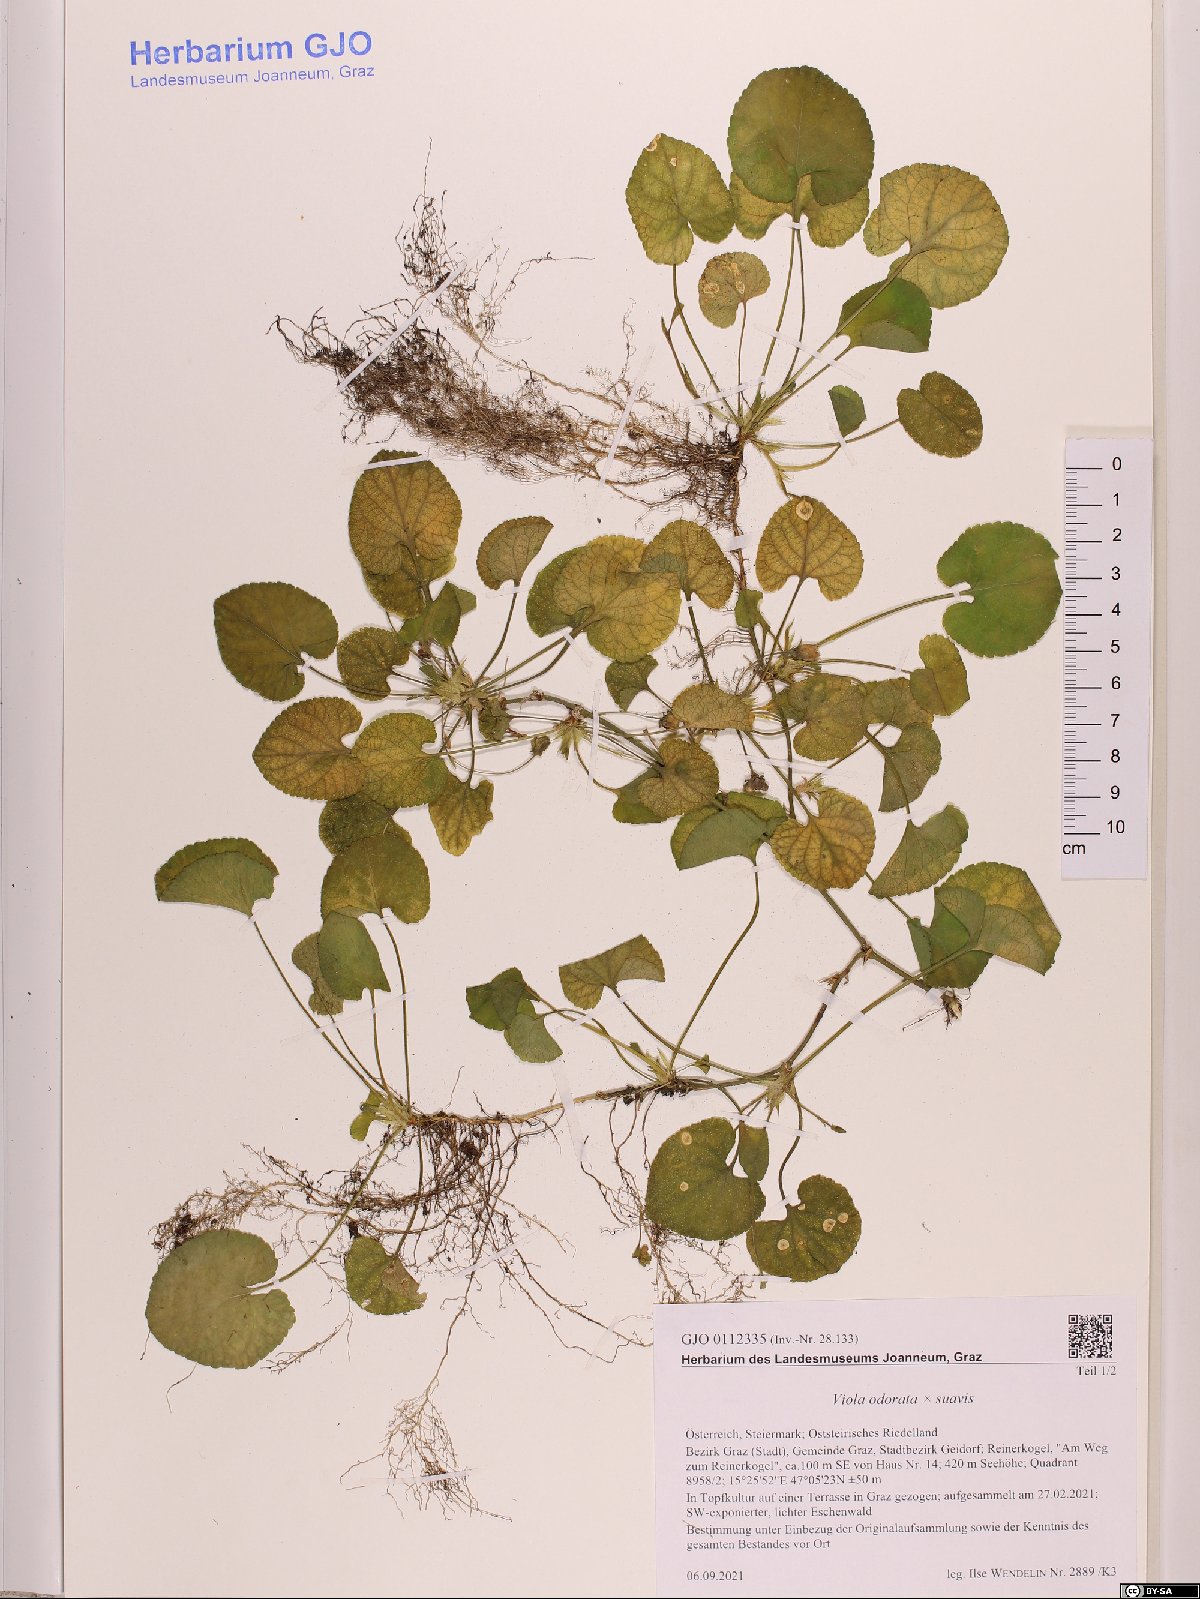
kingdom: Plantae
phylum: Tracheophyta
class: Magnoliopsida
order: Malpighiales
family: Violaceae
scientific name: Violaceae
